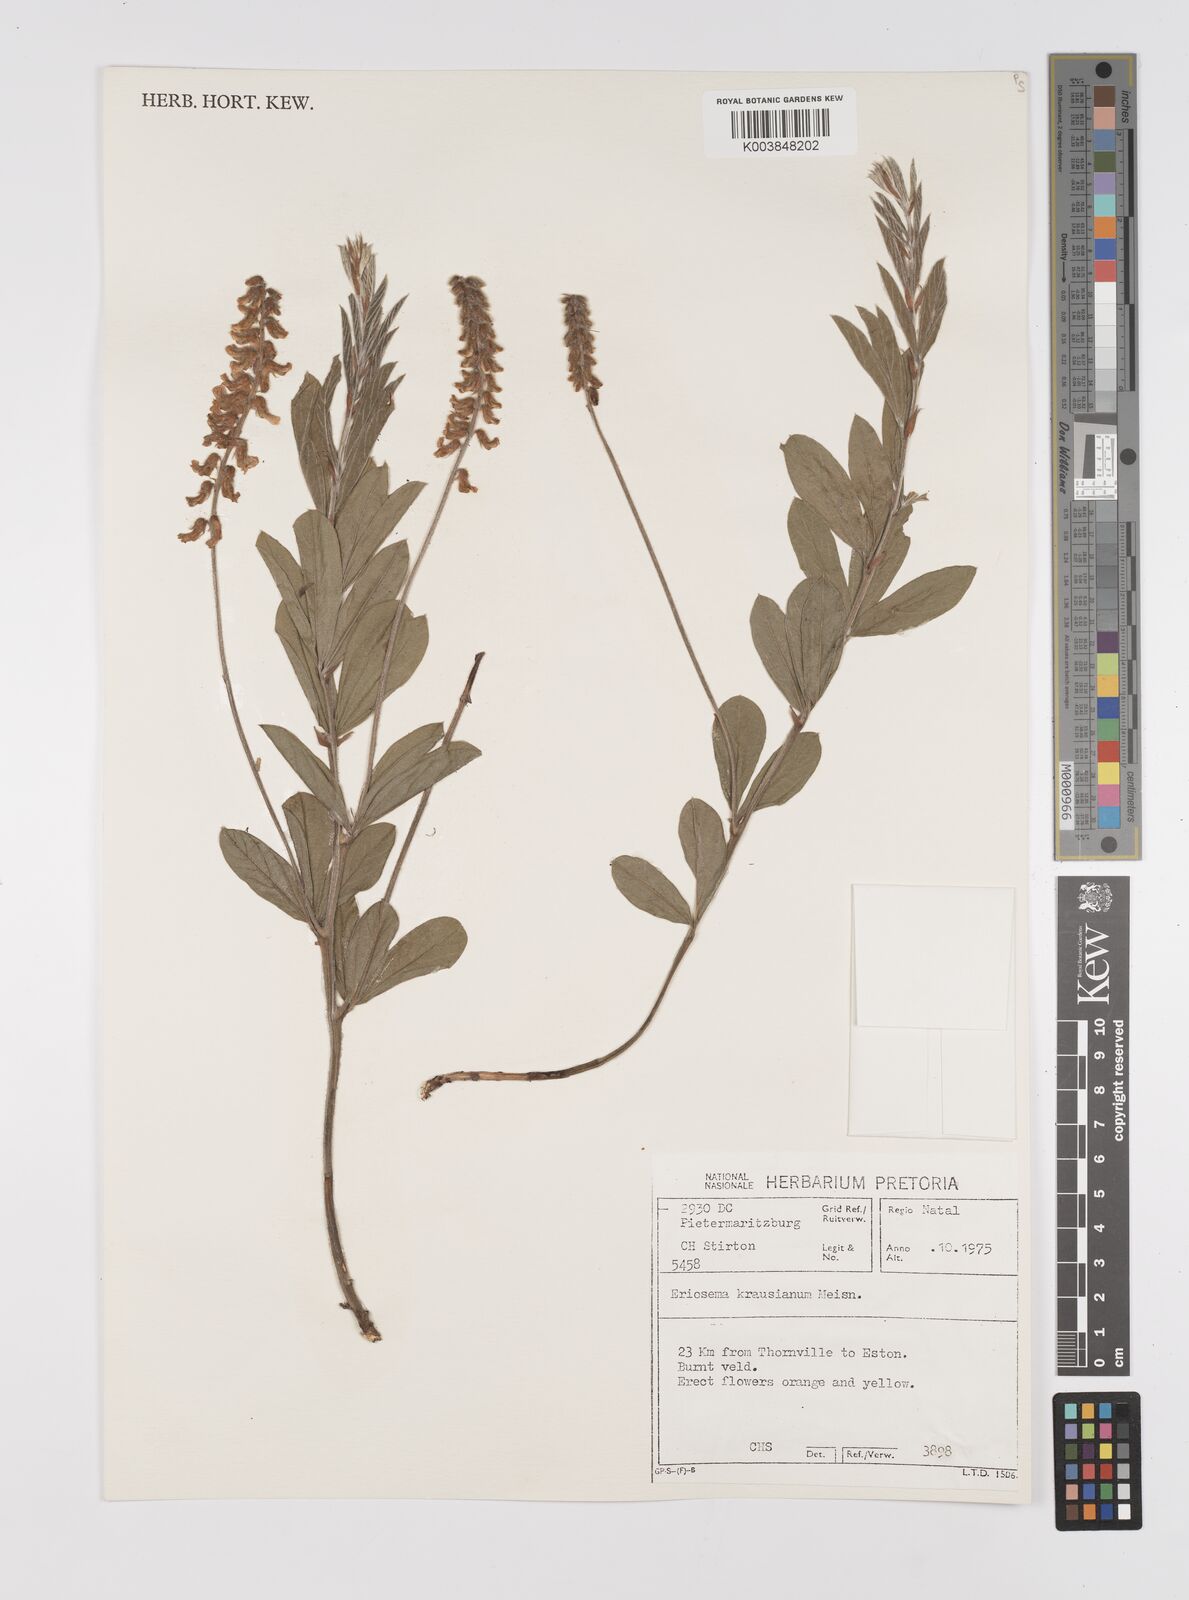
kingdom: Plantae
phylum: Tracheophyta
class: Magnoliopsida
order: Fabales
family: Fabaceae
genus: Eriosema
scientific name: Eriosema kraussianum
